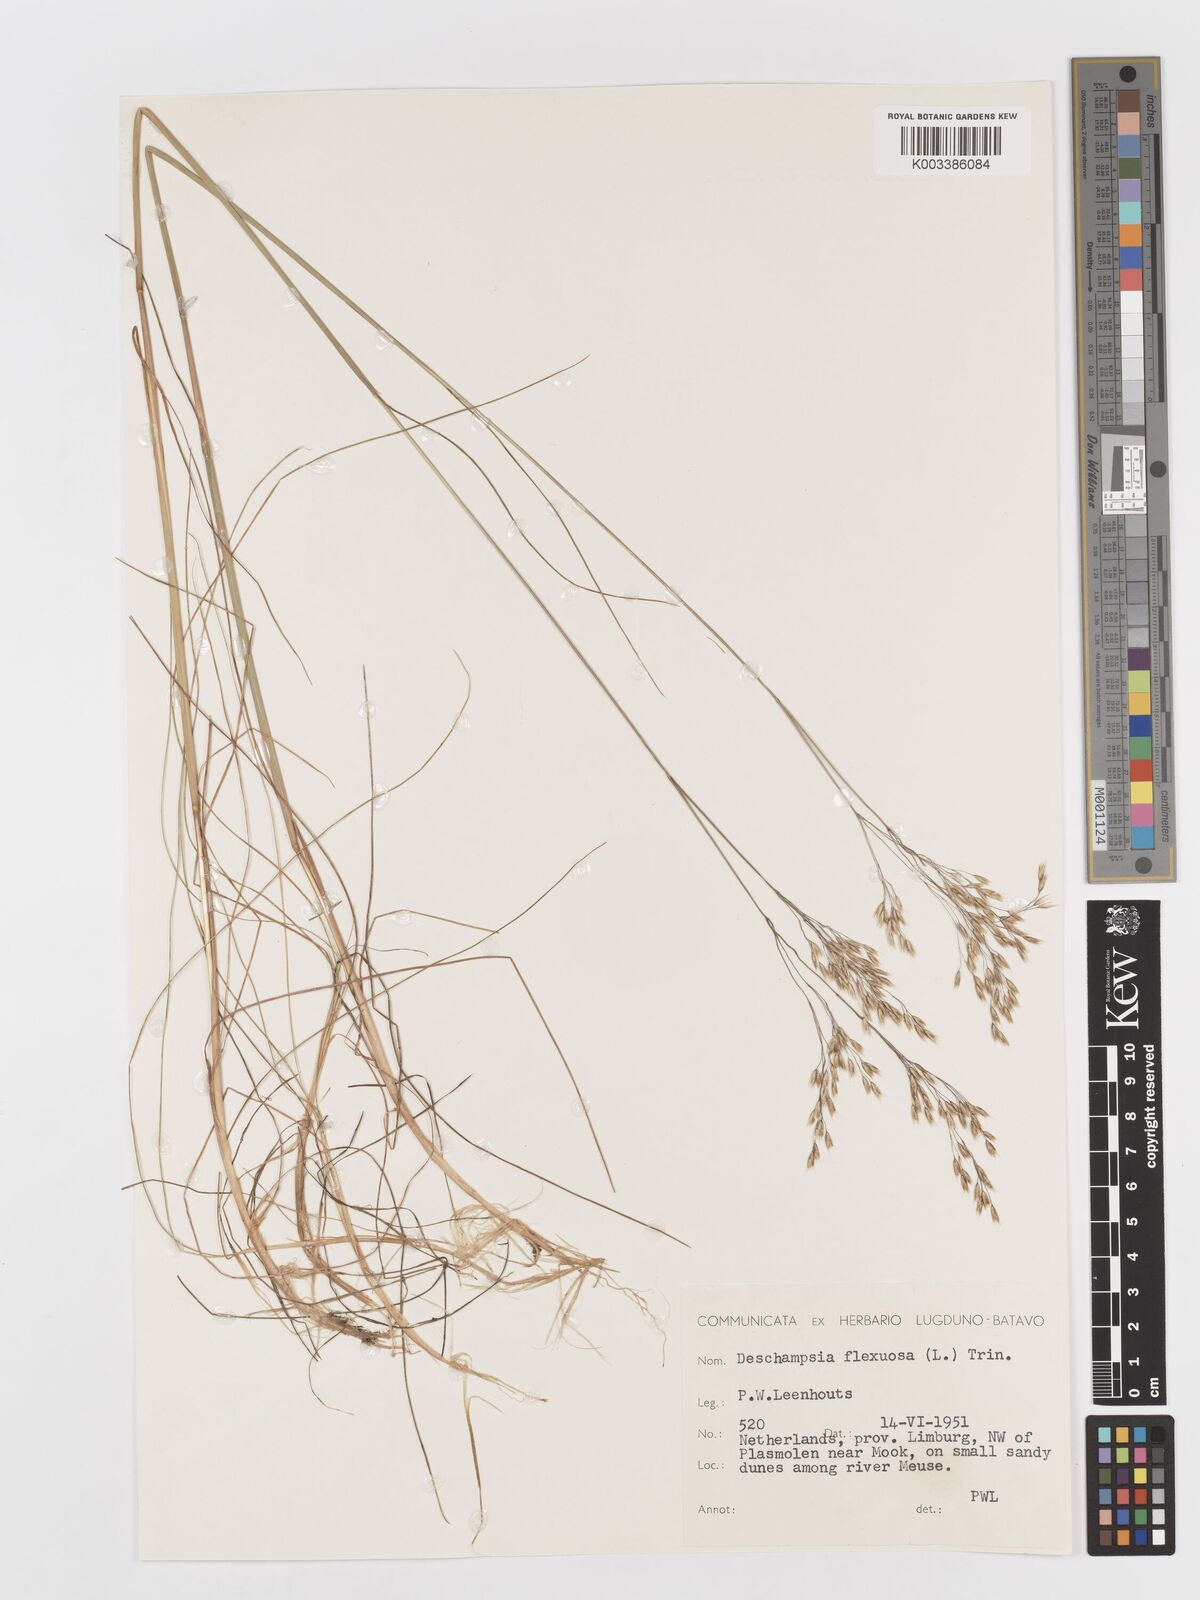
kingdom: Plantae
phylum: Tracheophyta
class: Liliopsida
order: Poales
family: Poaceae
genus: Avenella
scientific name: Avenella flexuosa
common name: Wavy hairgrass
